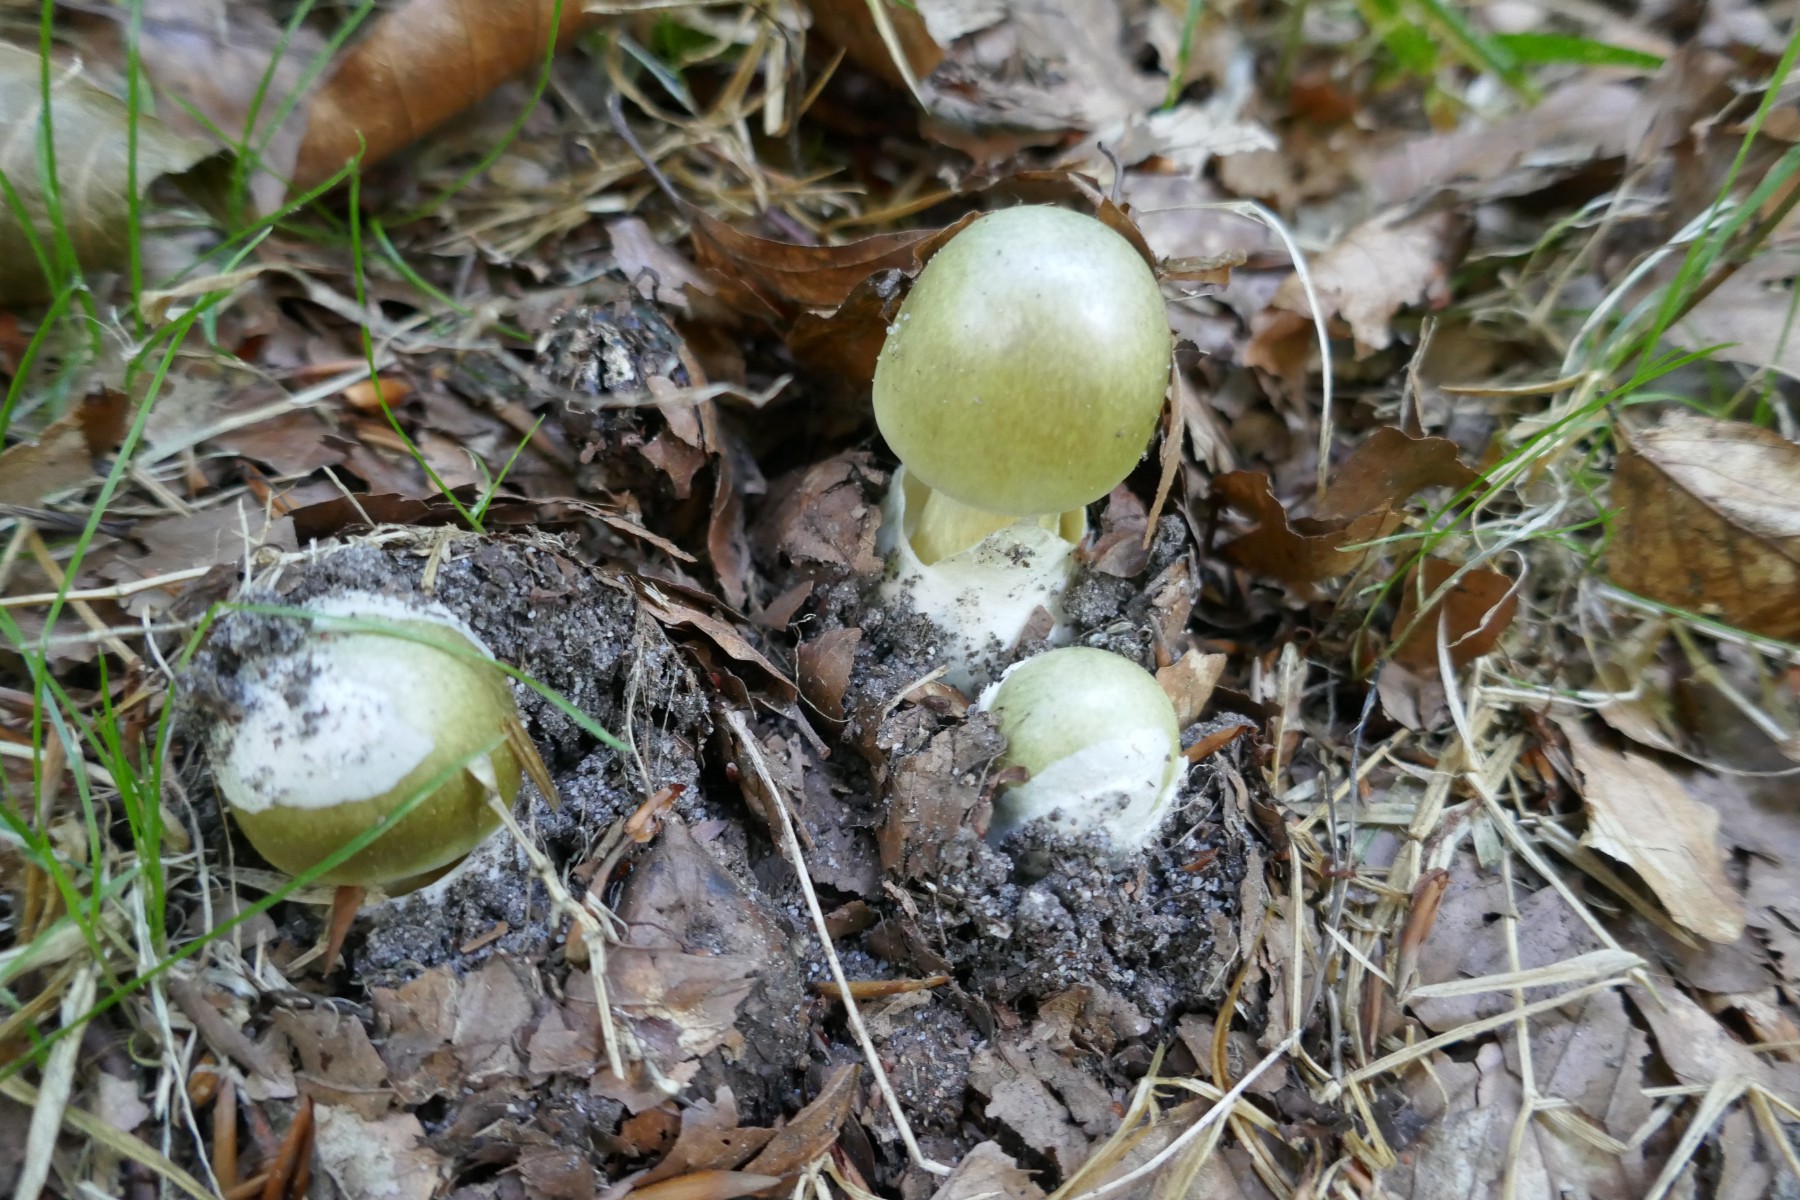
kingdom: Fungi
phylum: Basidiomycota
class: Agaricomycetes
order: Agaricales
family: Amanitaceae
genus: Amanita
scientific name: Amanita phalloides
